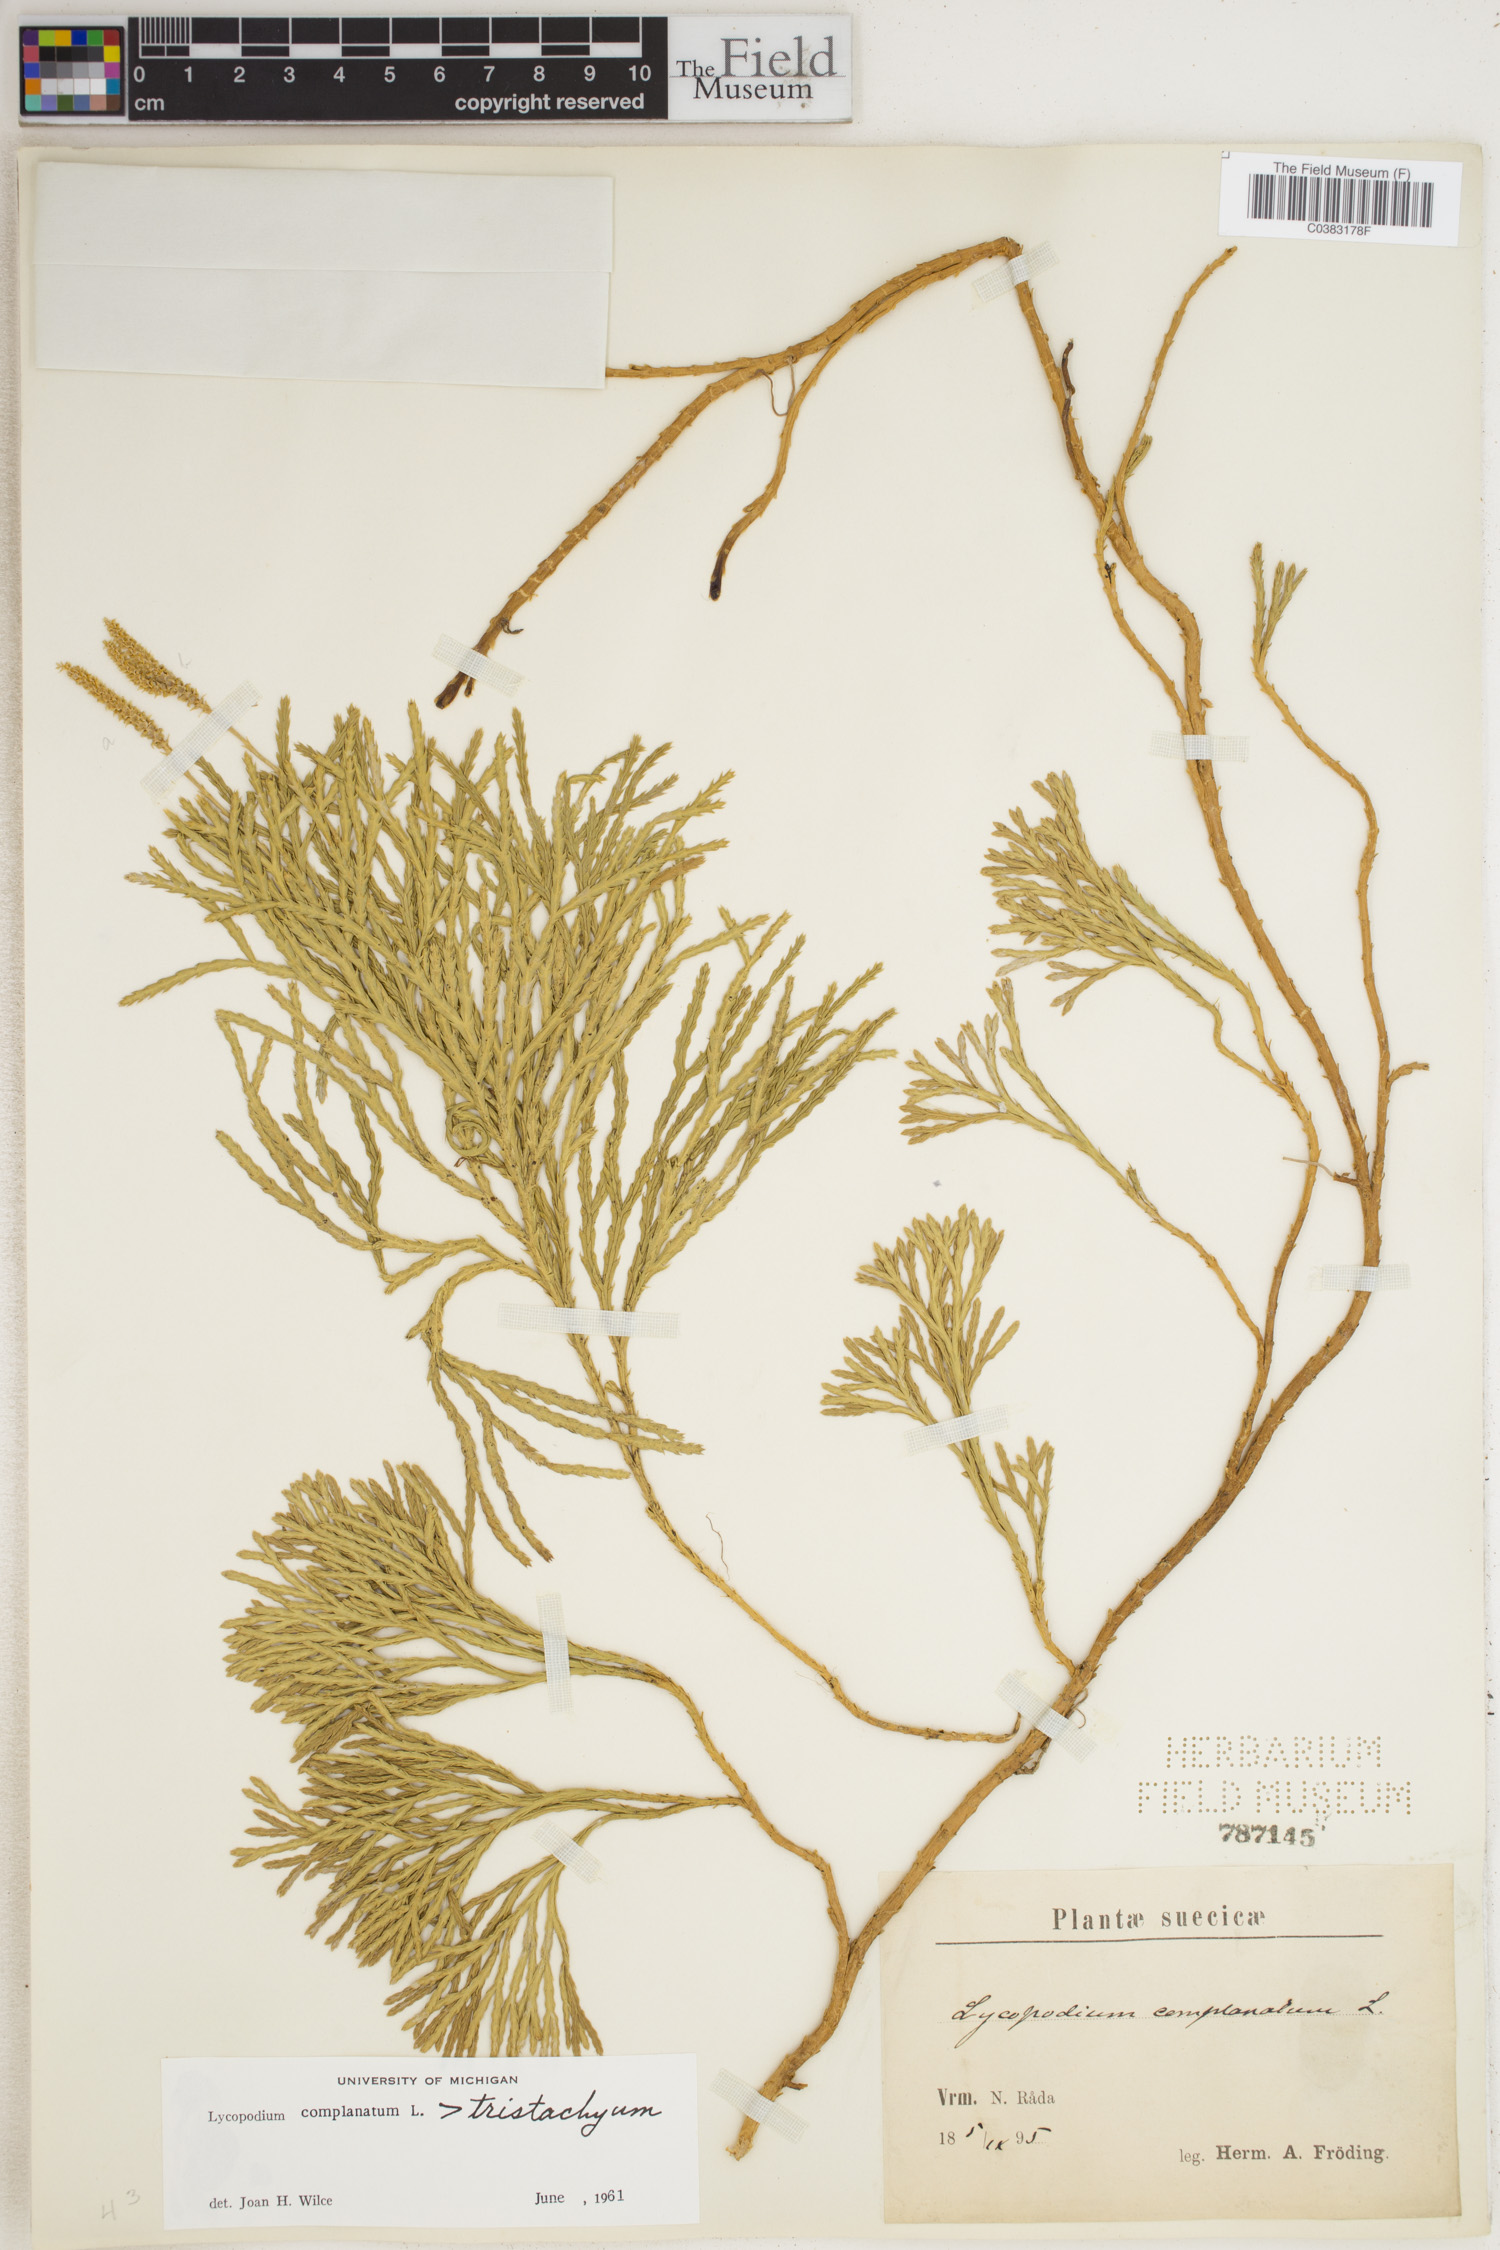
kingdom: Plantae
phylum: Tracheophyta
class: Lycopodiopsida
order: Lycopodiales
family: Lycopodiaceae
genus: Diphasiastrum
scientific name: Diphasiastrum complanatum
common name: Northern running-pine
